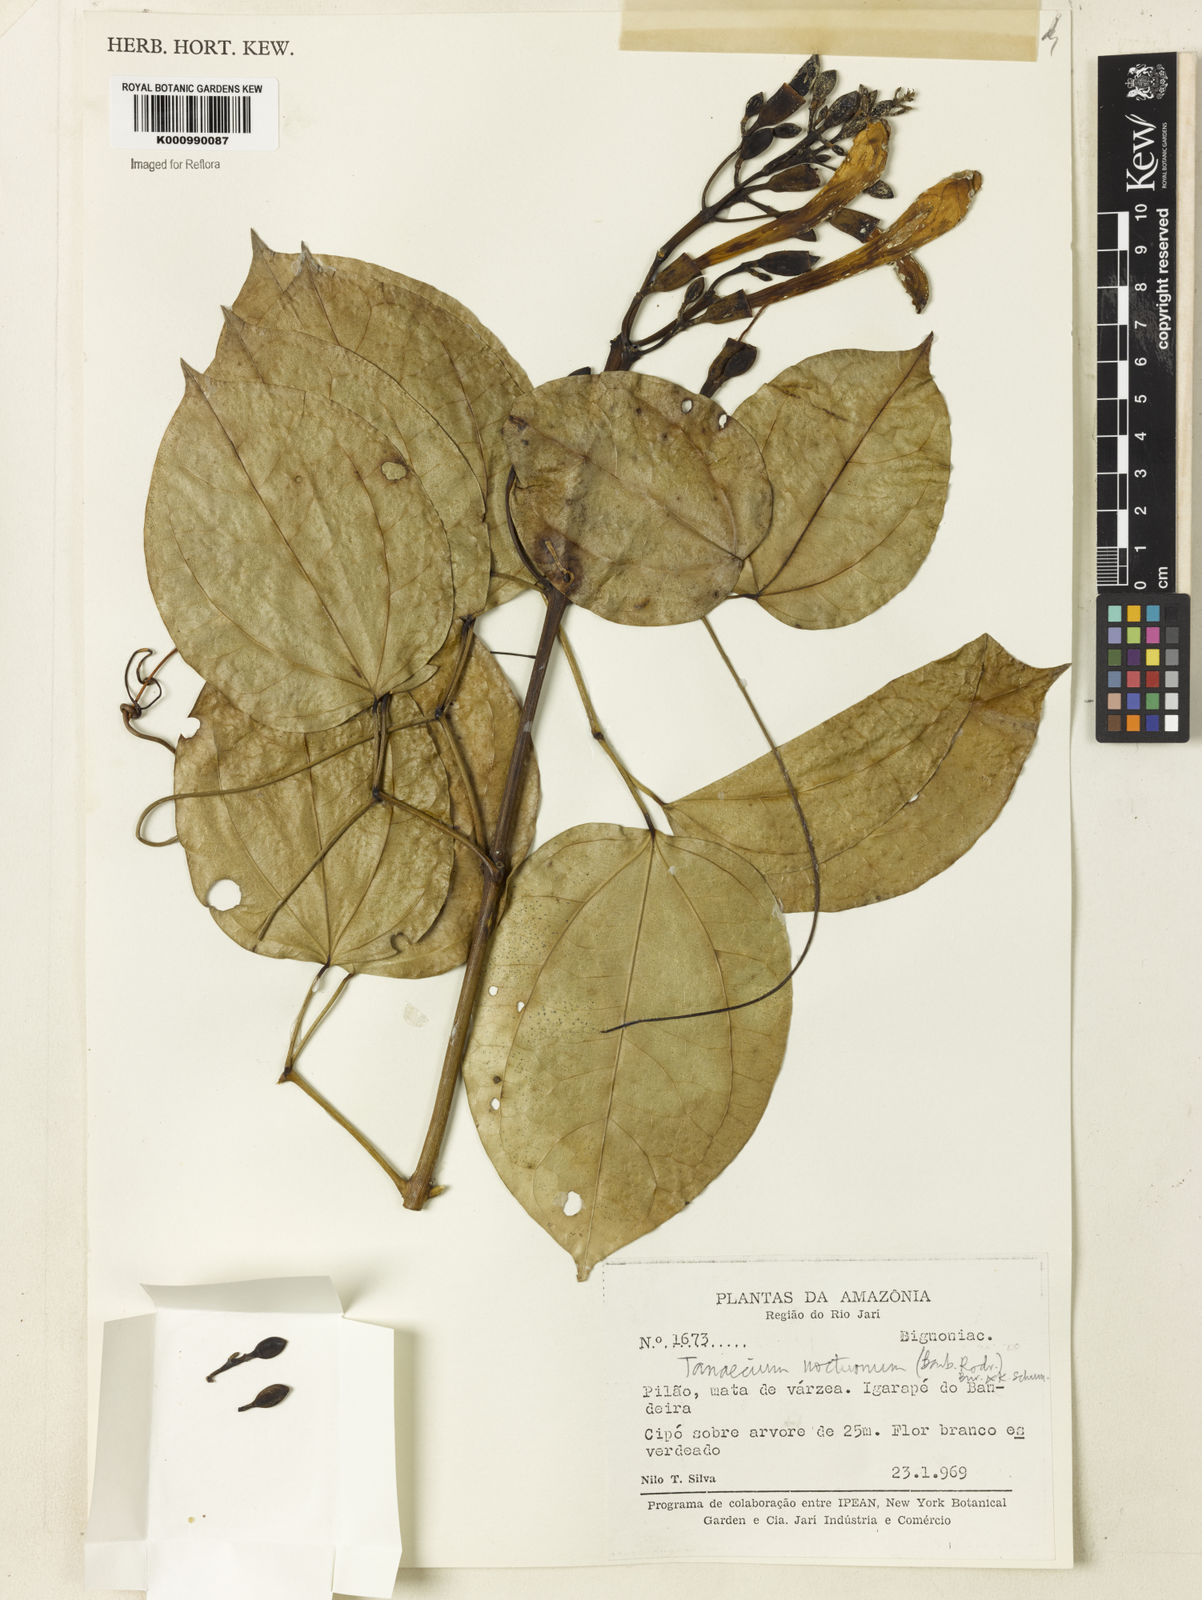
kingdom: Plantae
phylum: Tracheophyta
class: Magnoliopsida
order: Lamiales
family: Bignoniaceae
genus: Bignonia
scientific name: Bignonia nocturna
